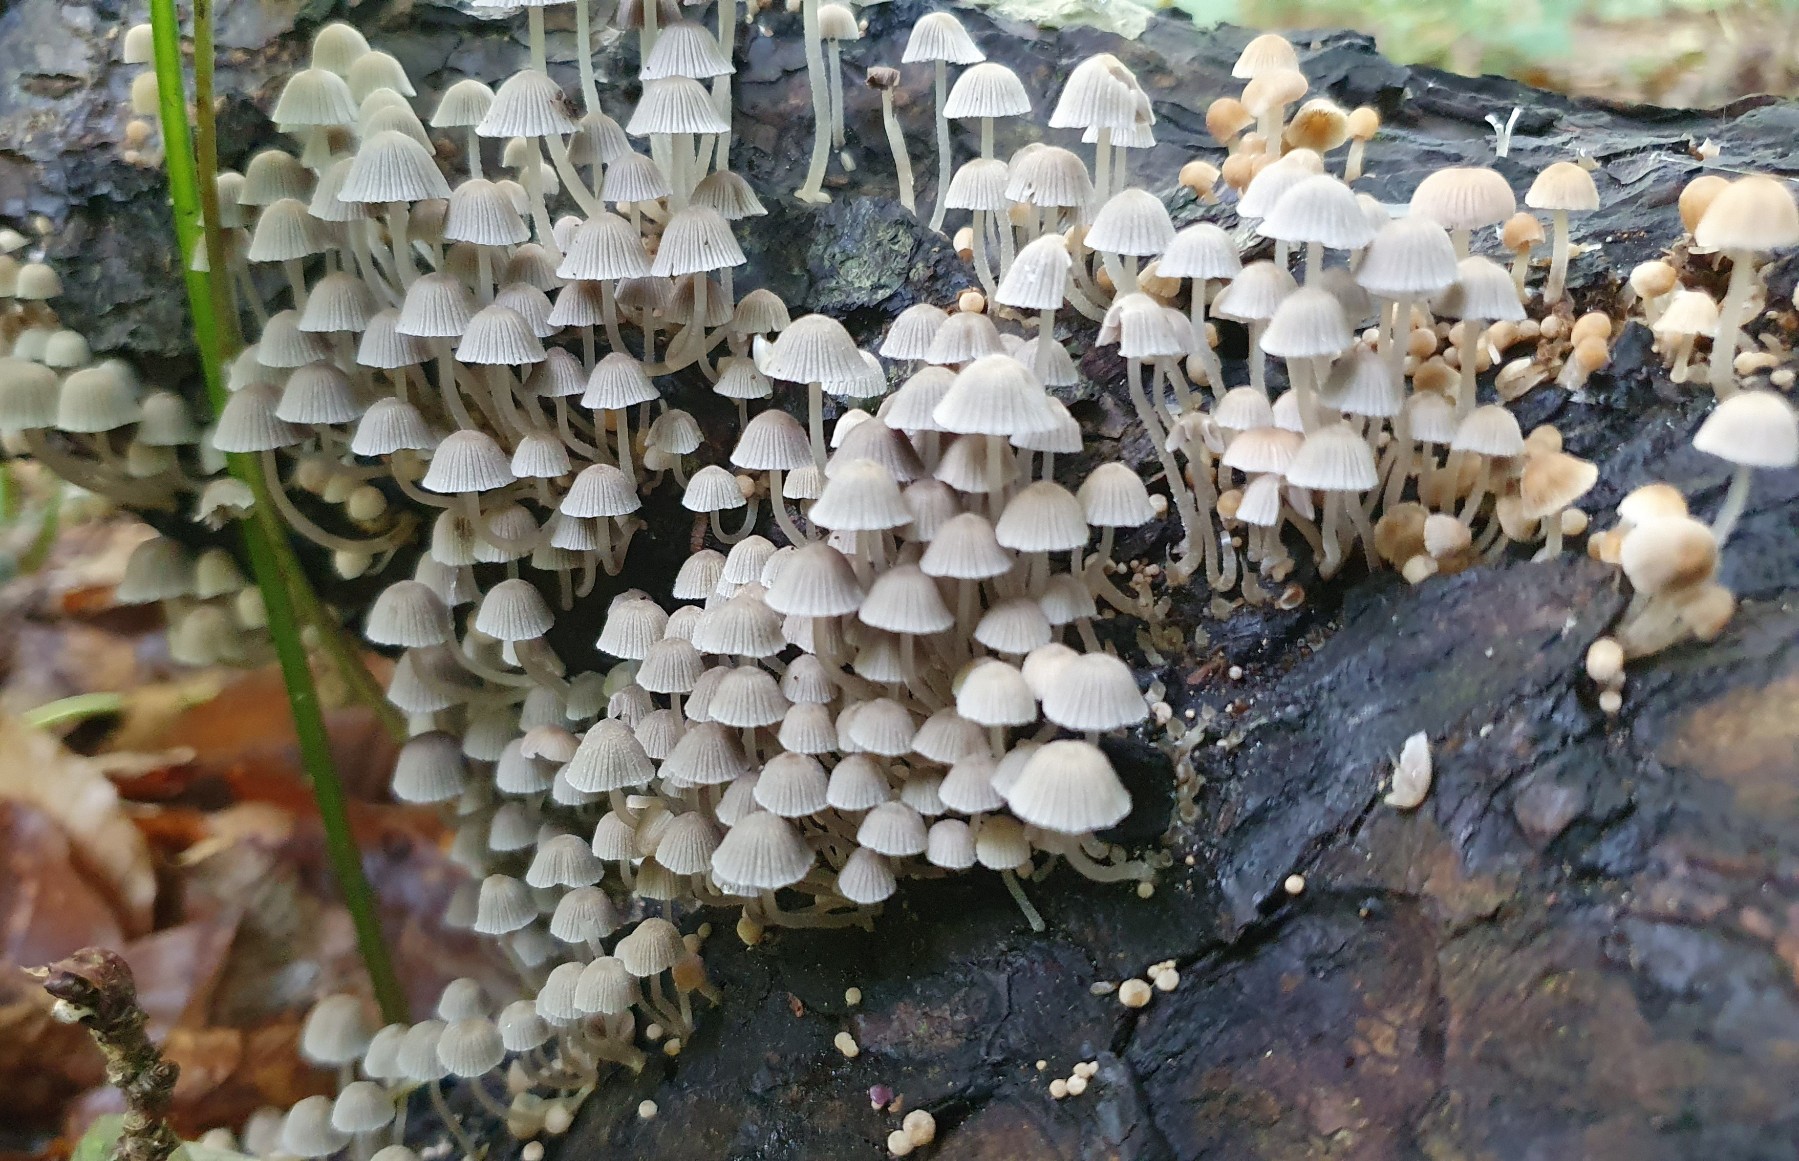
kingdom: Fungi
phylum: Basidiomycota
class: Agaricomycetes
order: Agaricales
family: Psathyrellaceae
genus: Coprinellus
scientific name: Coprinellus disseminatus
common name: bredsået blækhat
